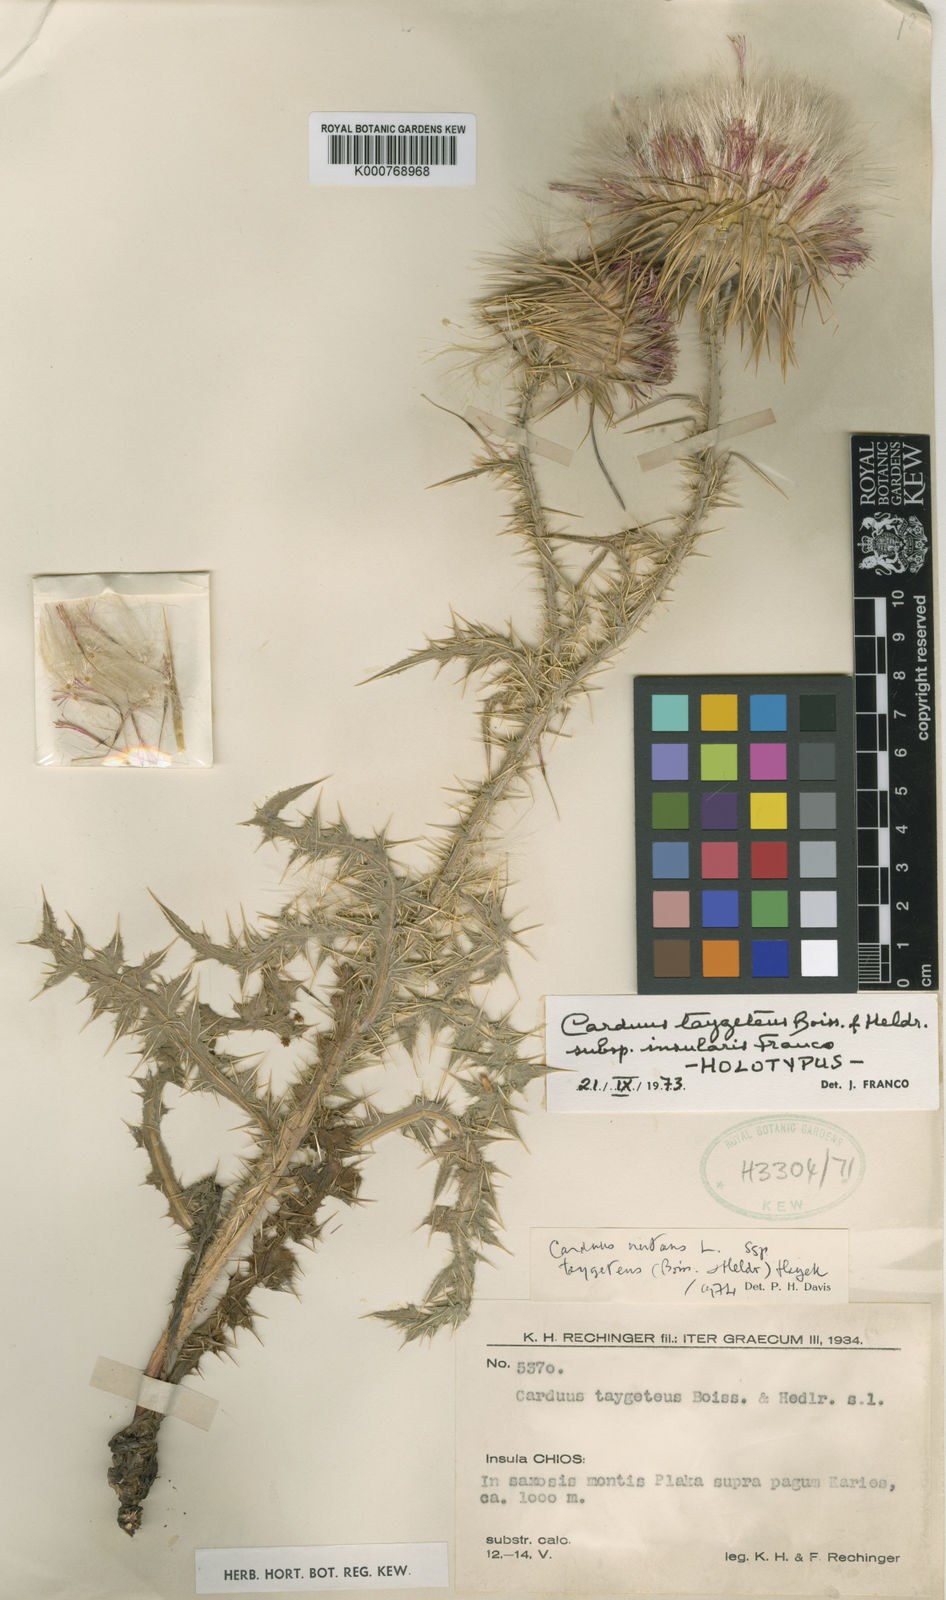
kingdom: Plantae
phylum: Tracheophyta
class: Magnoliopsida
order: Asterales
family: Asteraceae
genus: Carduus
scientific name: Carduus nutans
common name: Musk thistle
